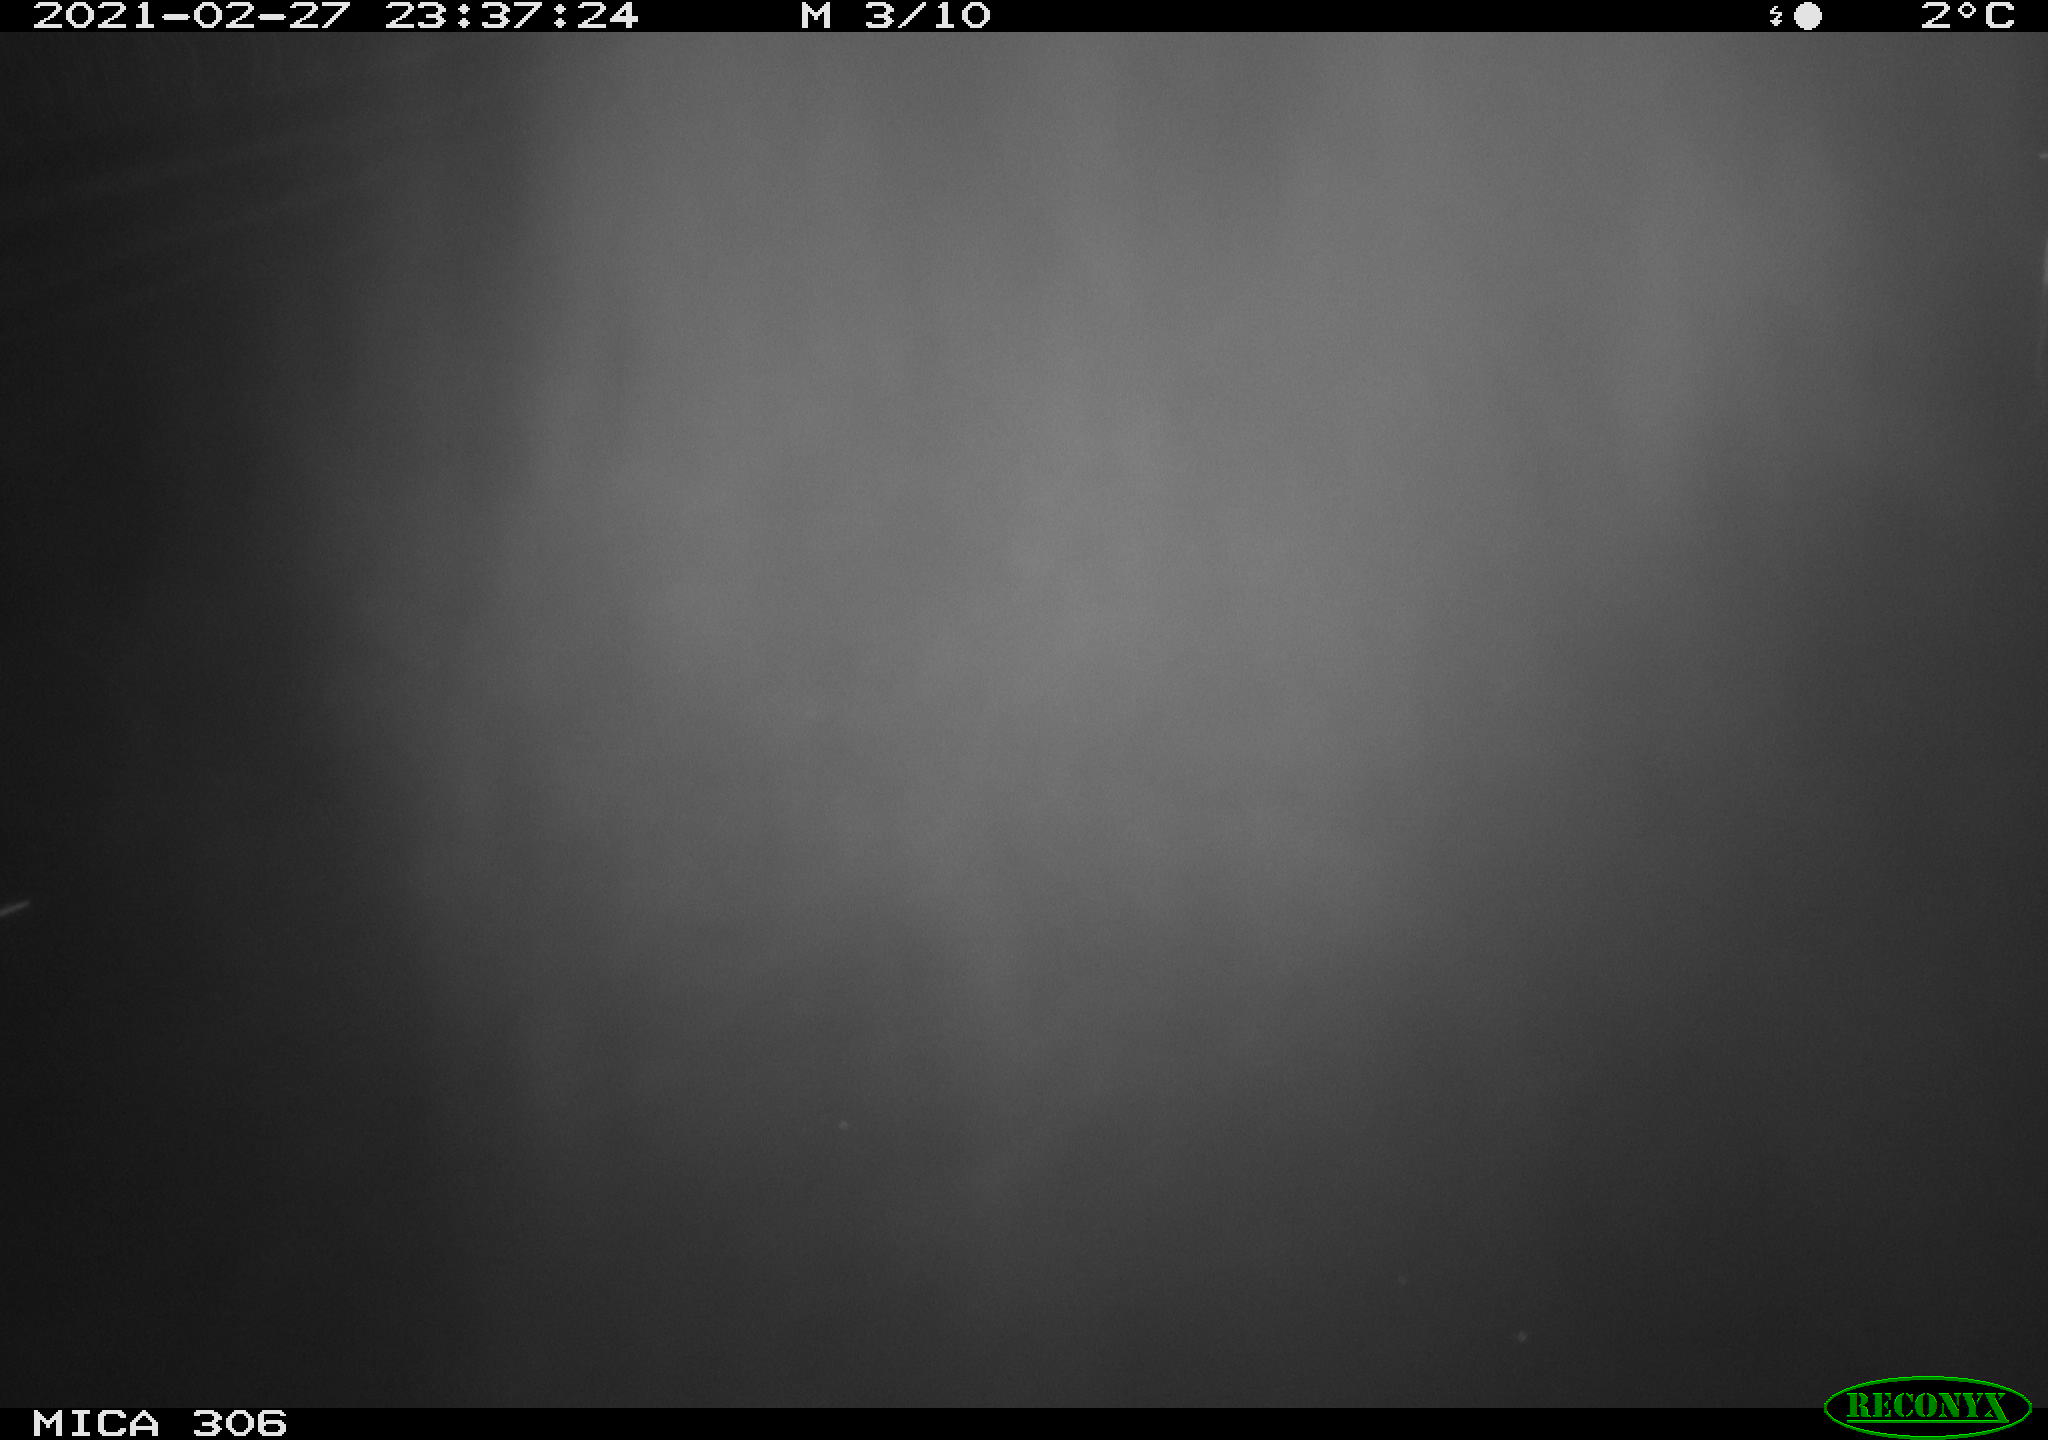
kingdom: Animalia
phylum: Chordata
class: Mammalia
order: Rodentia
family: Cricetidae
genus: Ondatra
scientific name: Ondatra zibethicus
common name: Muskrat
